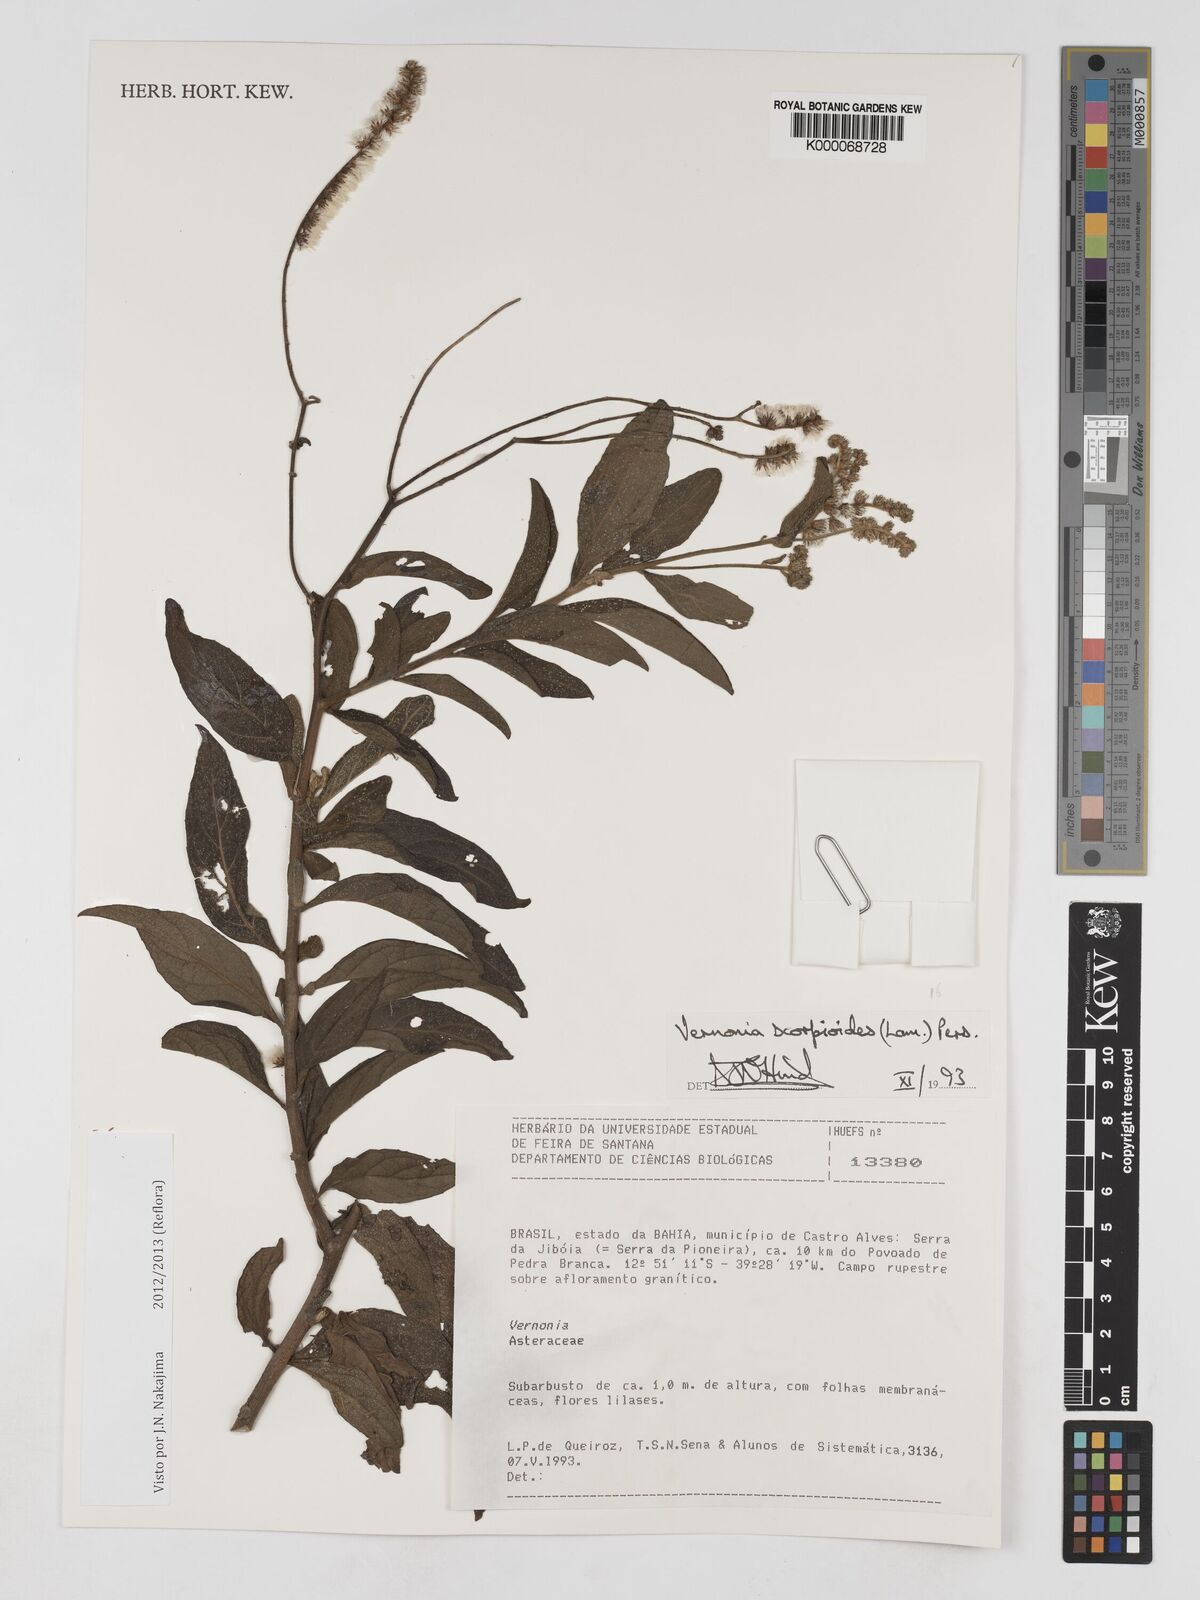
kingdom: Plantae
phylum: Tracheophyta
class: Magnoliopsida
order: Asterales
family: Asteraceae
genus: Cyrtocymura
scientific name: Cyrtocymura scorpioides
